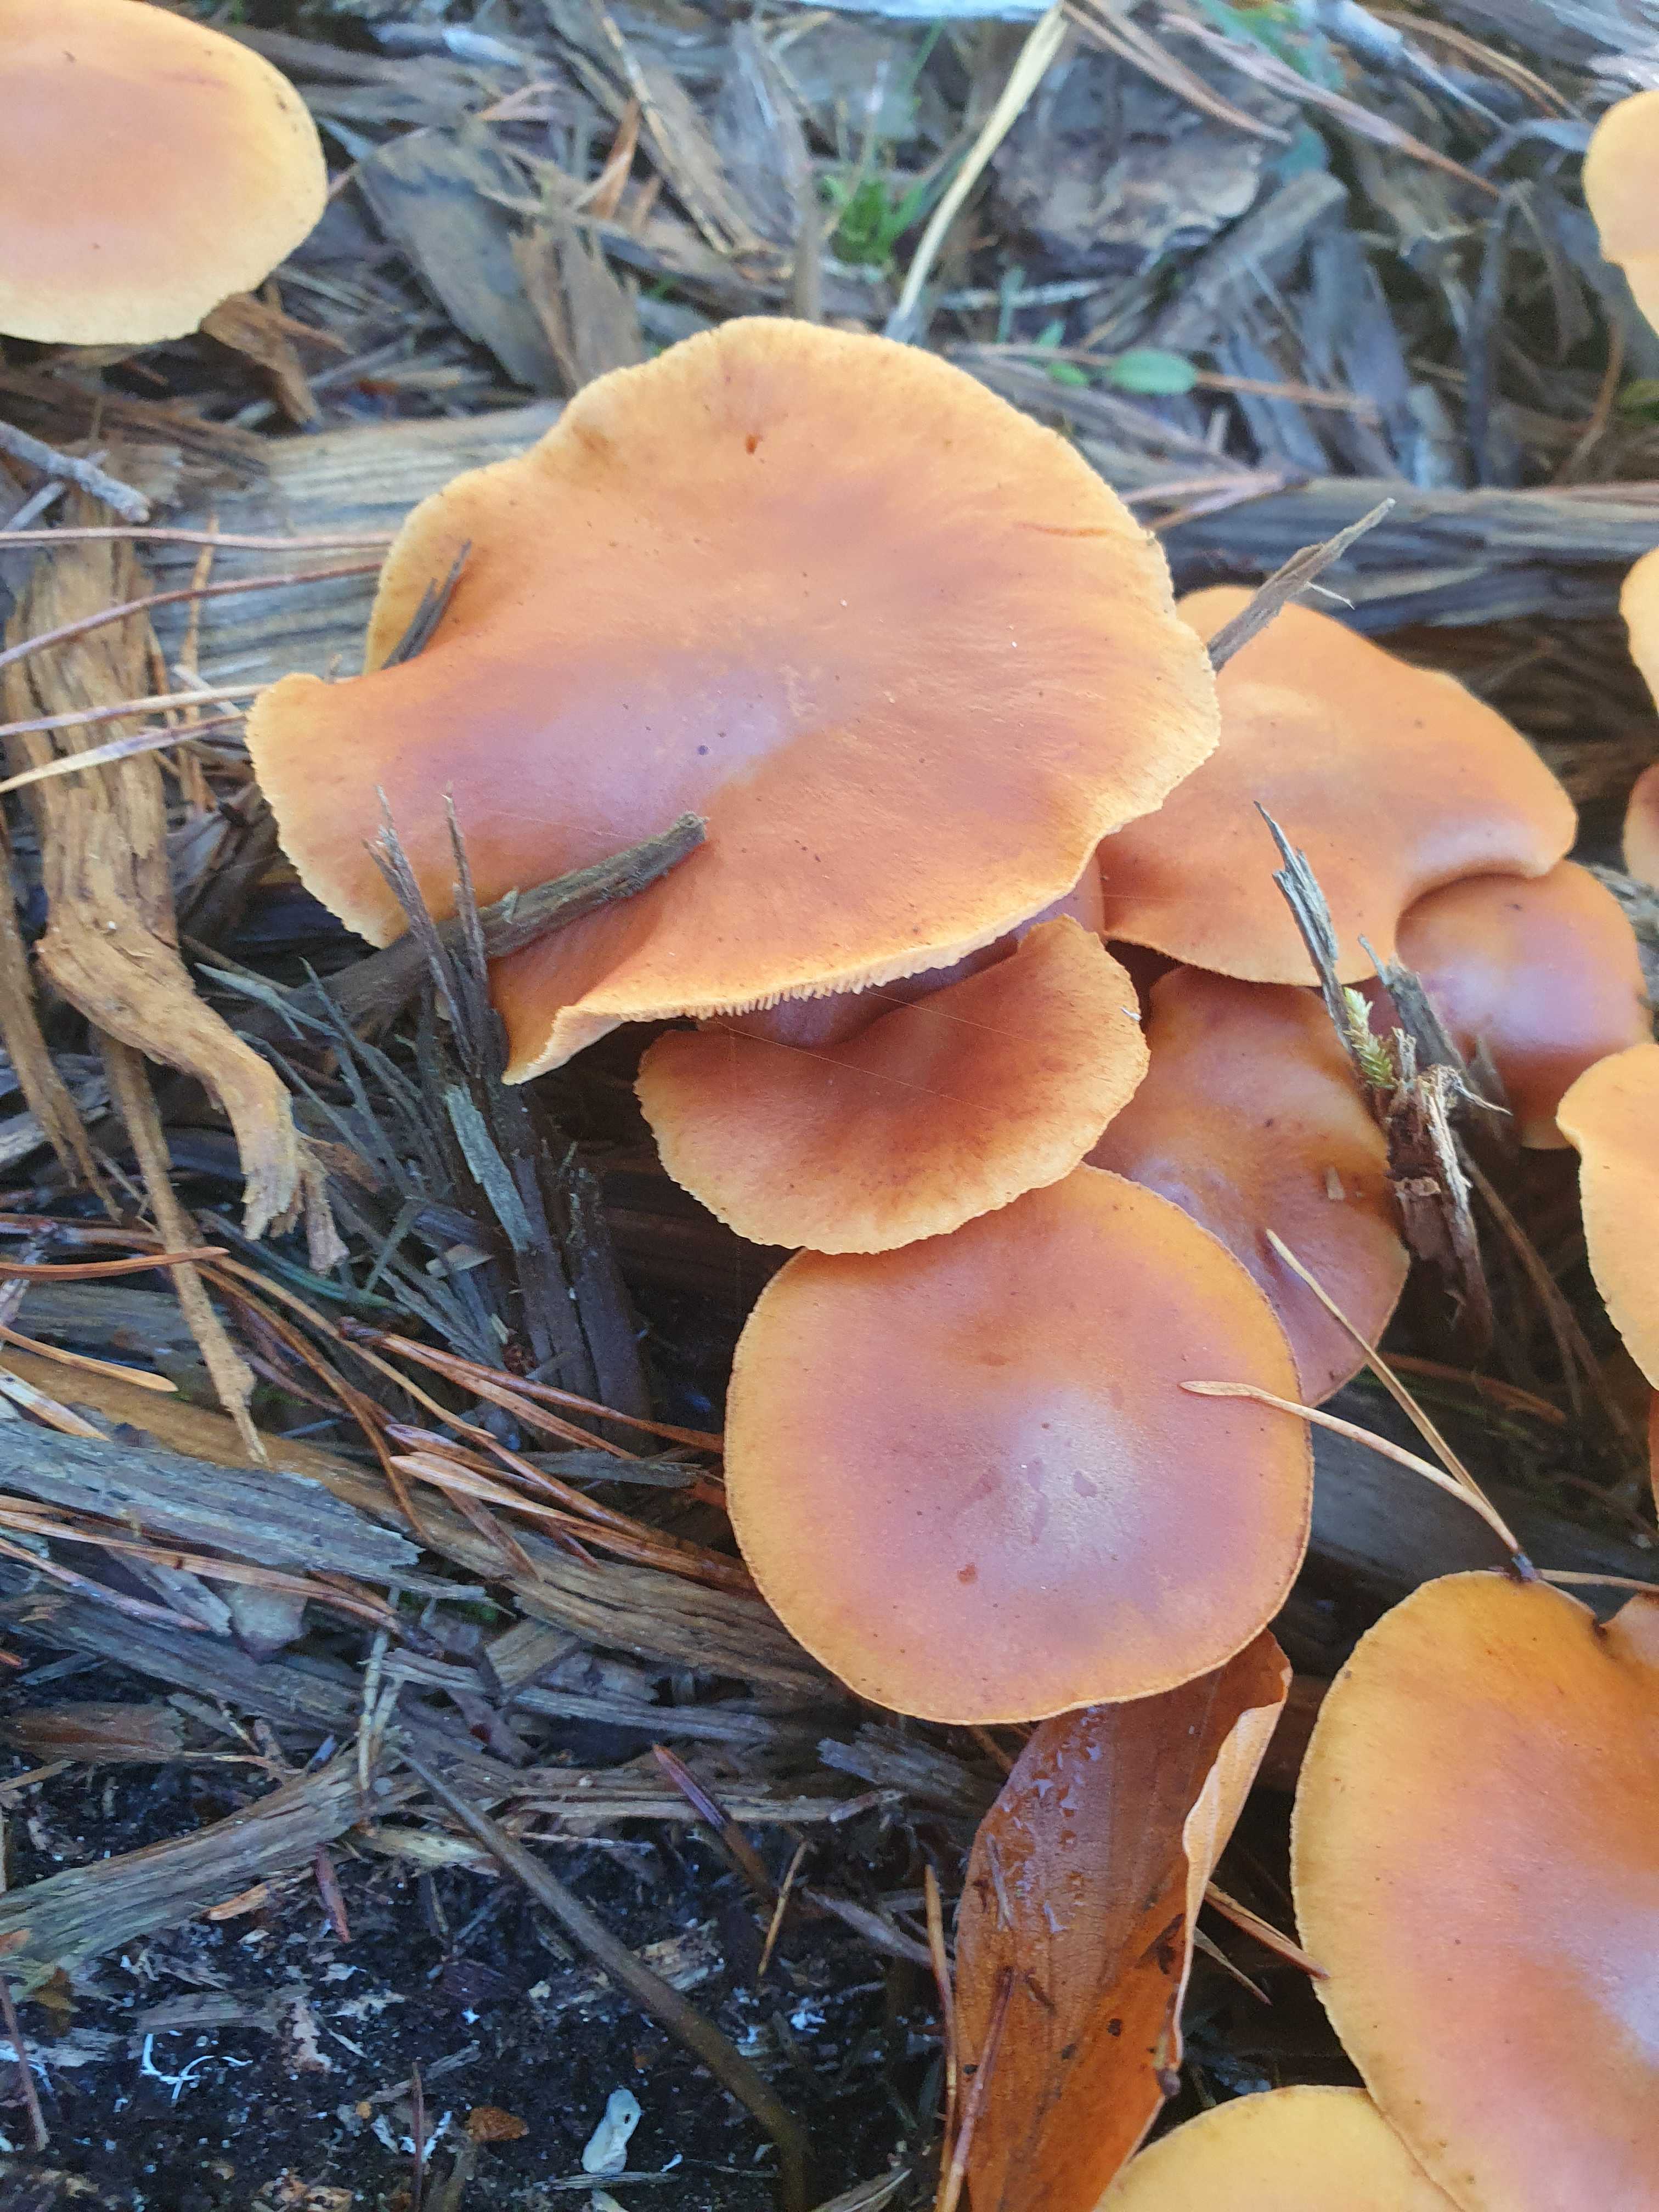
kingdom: Fungi
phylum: Basidiomycota
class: Agaricomycetes
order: Agaricales
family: Hymenogastraceae
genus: Gymnopilus
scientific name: Gymnopilus penetrans
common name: plettet flammehat
